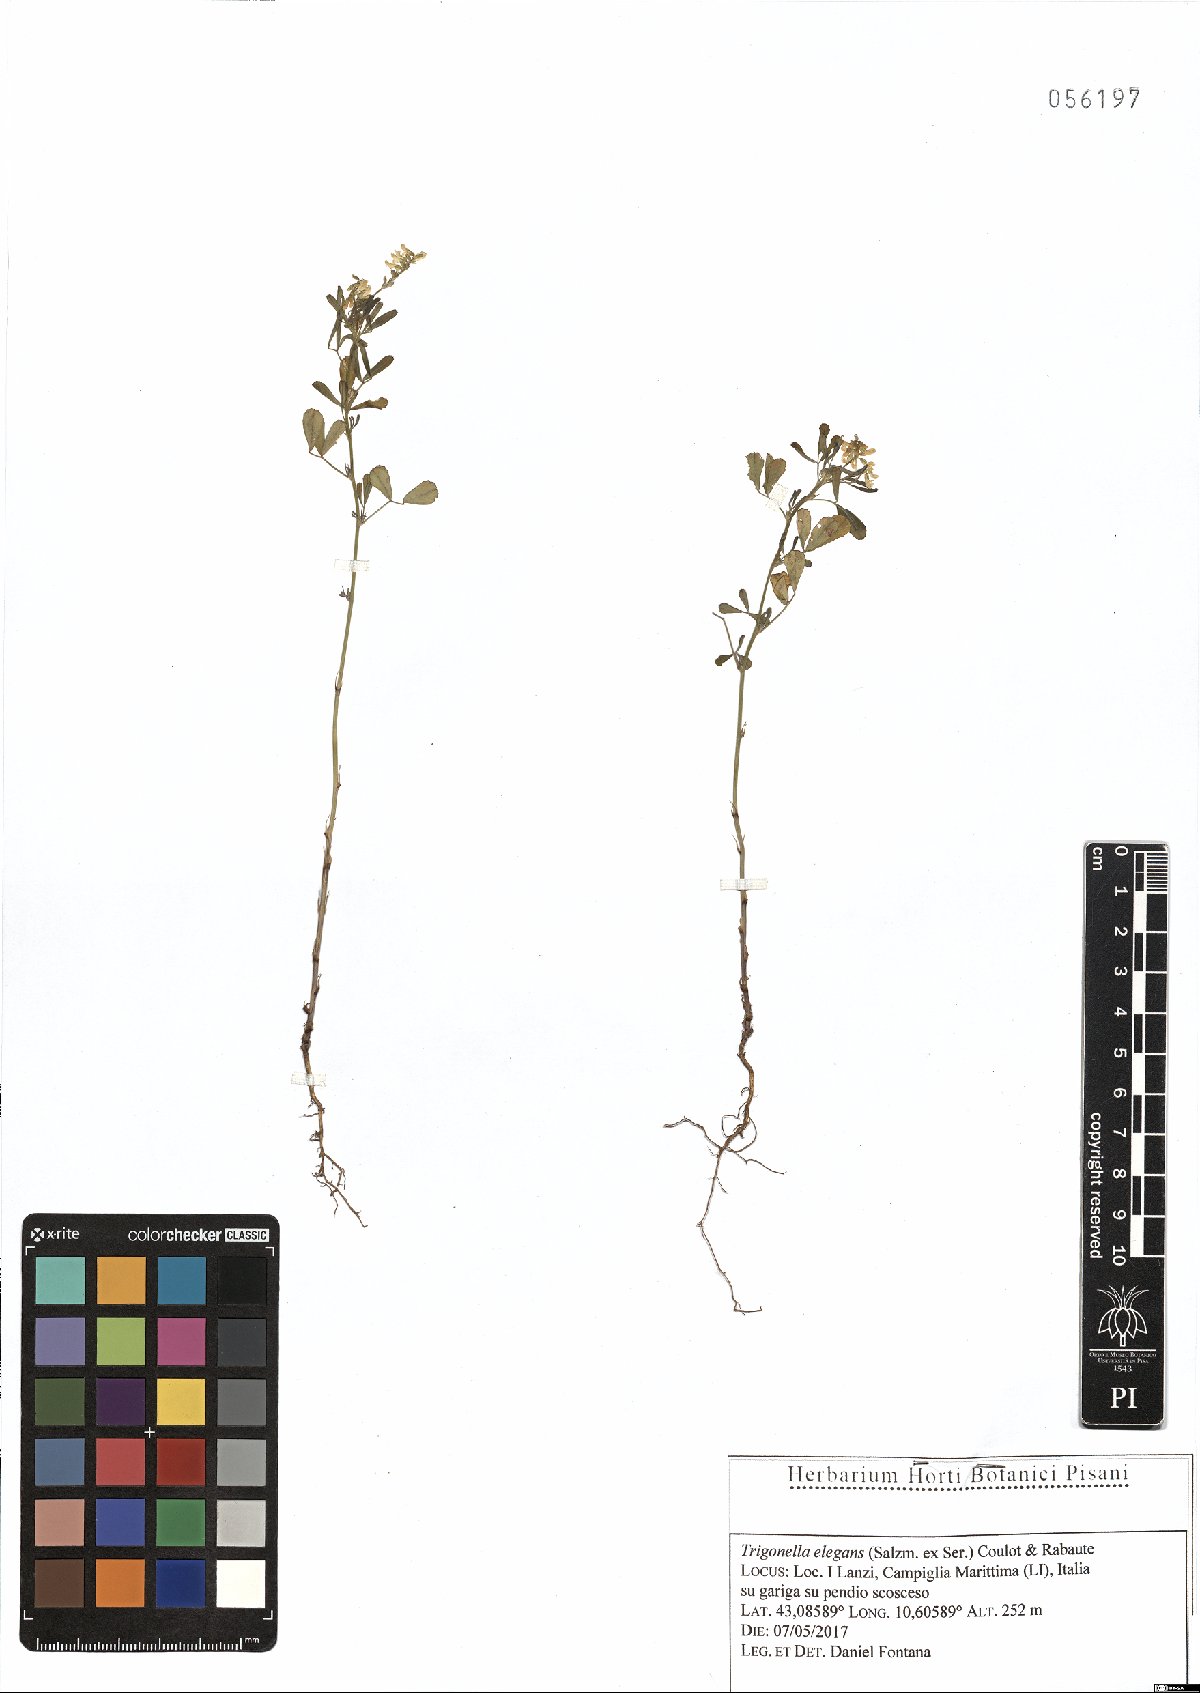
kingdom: Plantae
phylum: Tracheophyta
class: Magnoliopsida
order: Fabales
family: Fabaceae
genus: Melilotus
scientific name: Melilotus elegans
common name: Elegant sweet-clover
